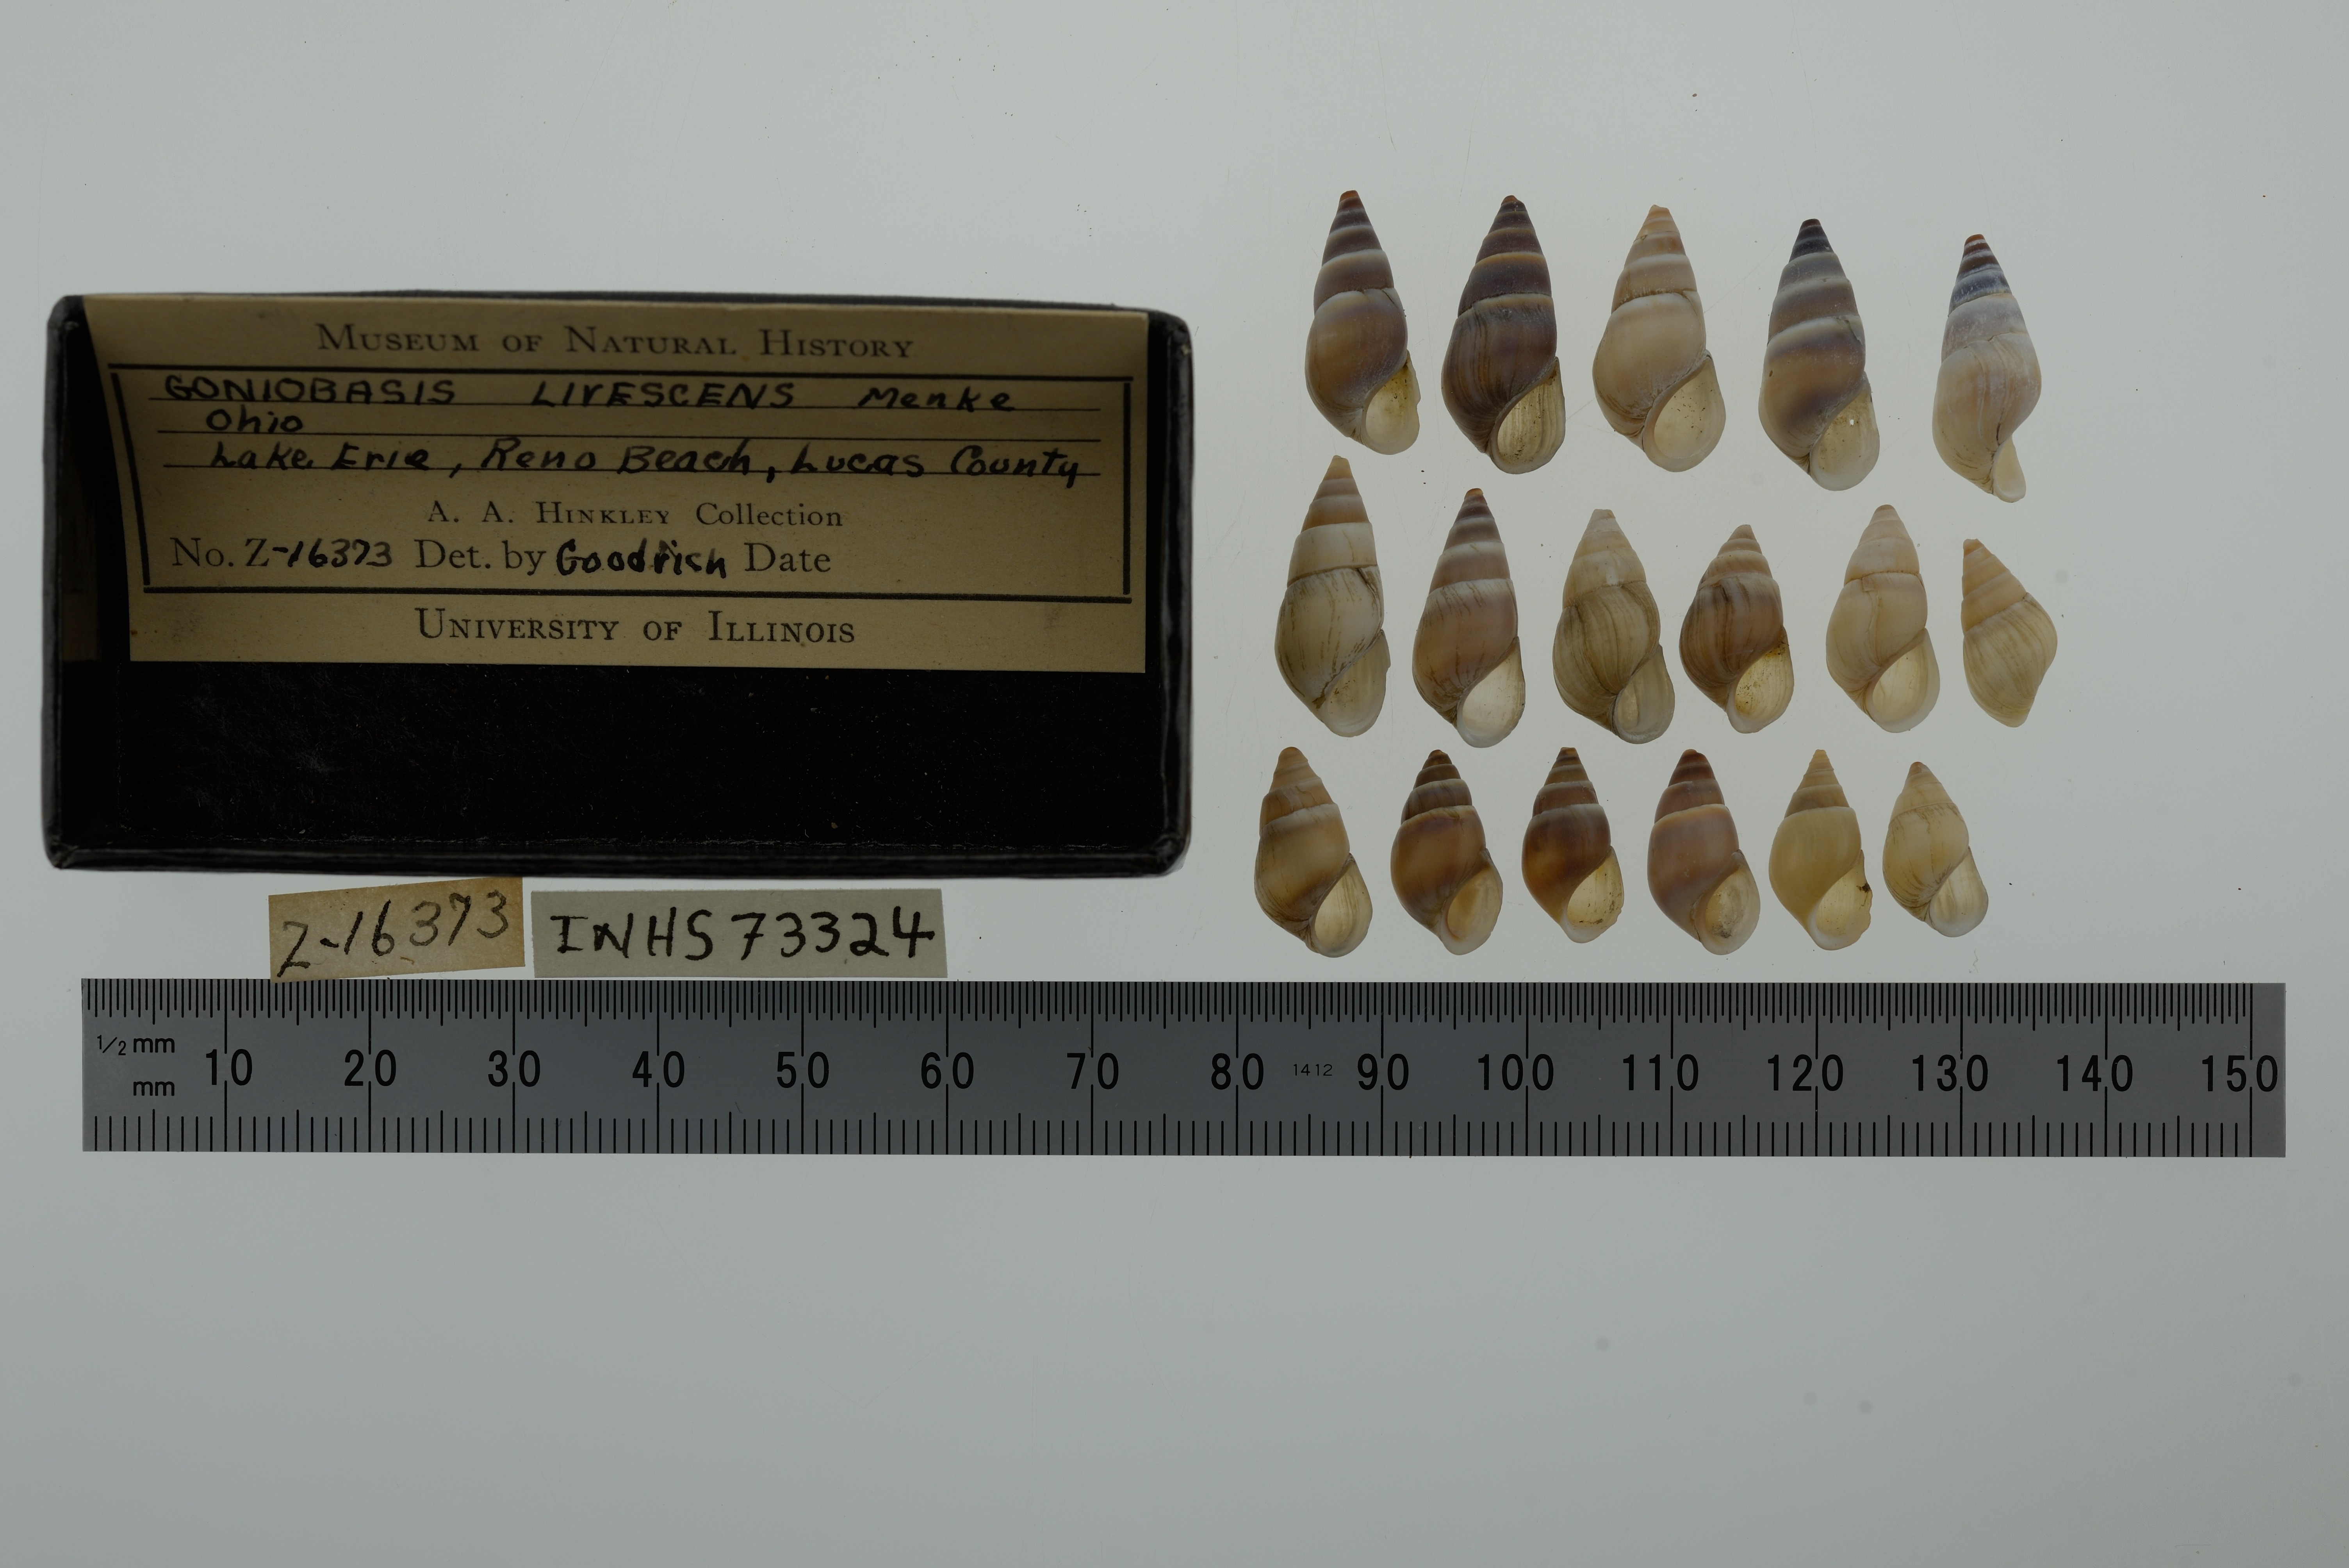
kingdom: Animalia
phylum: Mollusca
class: Gastropoda
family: Pleuroceridae
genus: Elimia
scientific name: Elimia livescens
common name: Liver elimia
